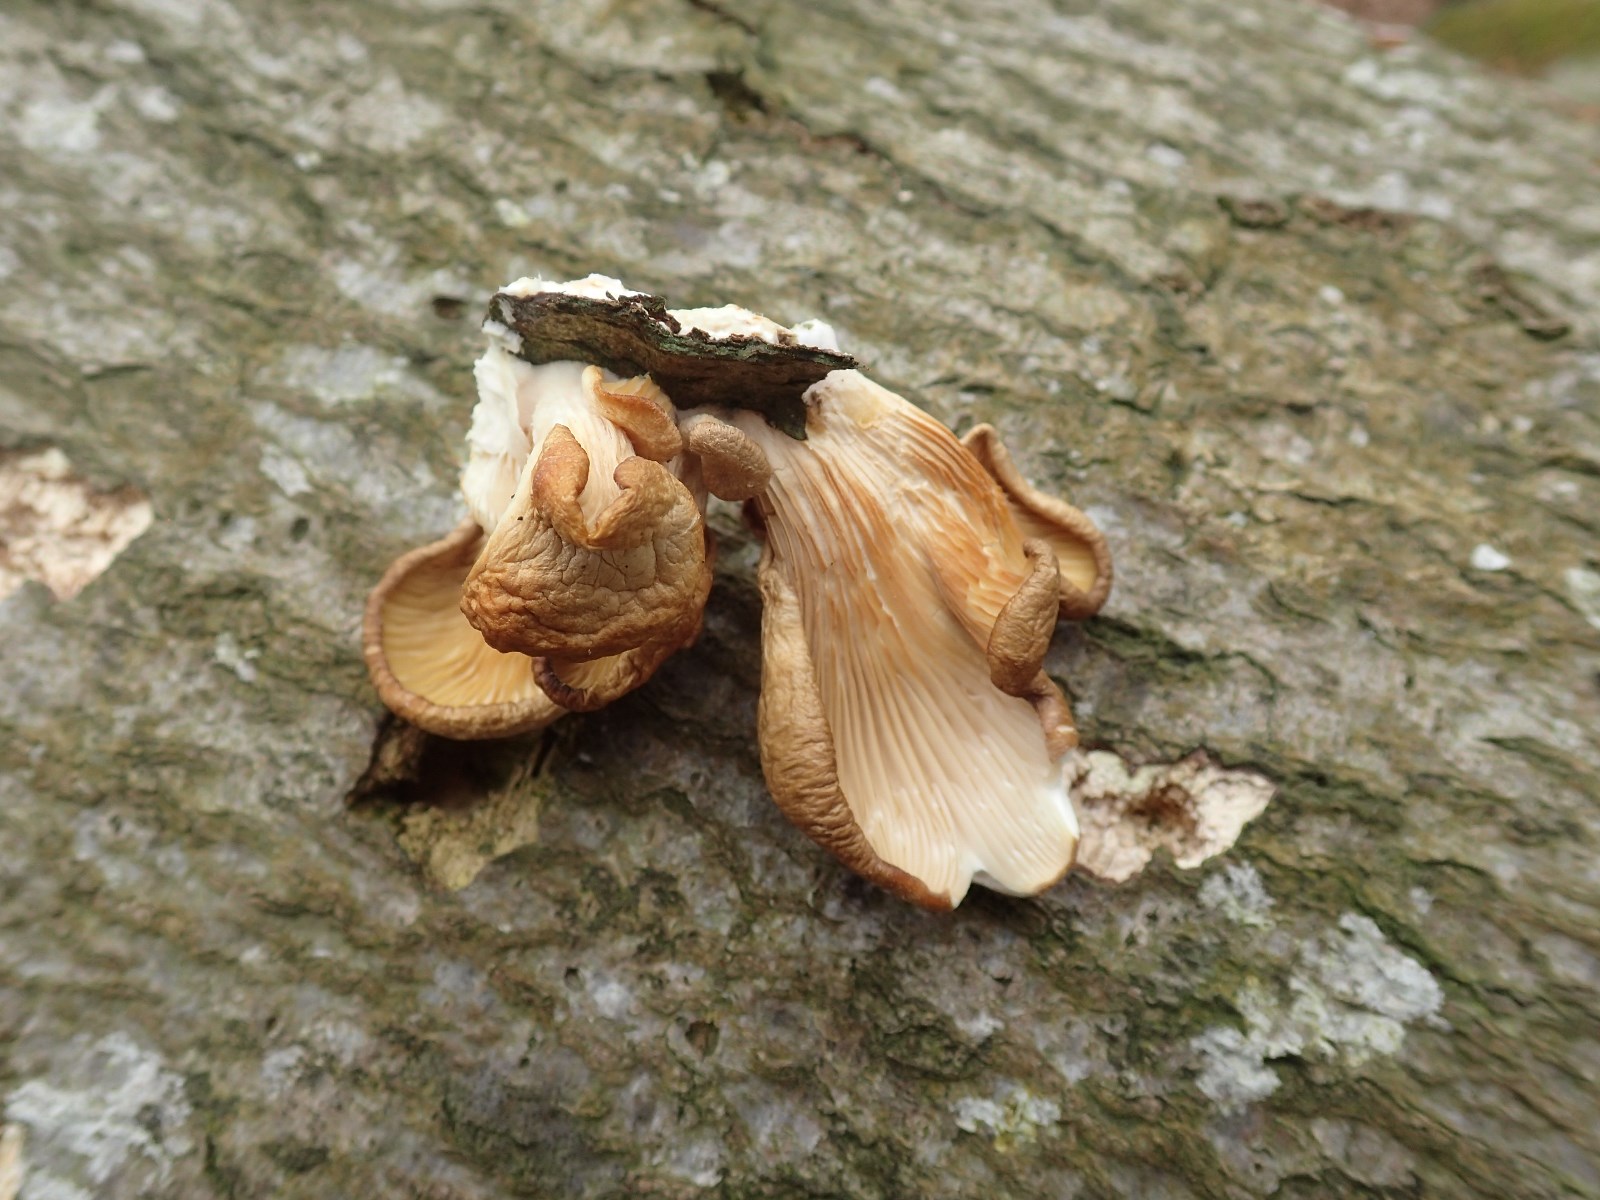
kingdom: Fungi
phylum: Basidiomycota
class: Agaricomycetes
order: Agaricales
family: Pleurotaceae
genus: Pleurotus
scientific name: Pleurotus ostreatus
